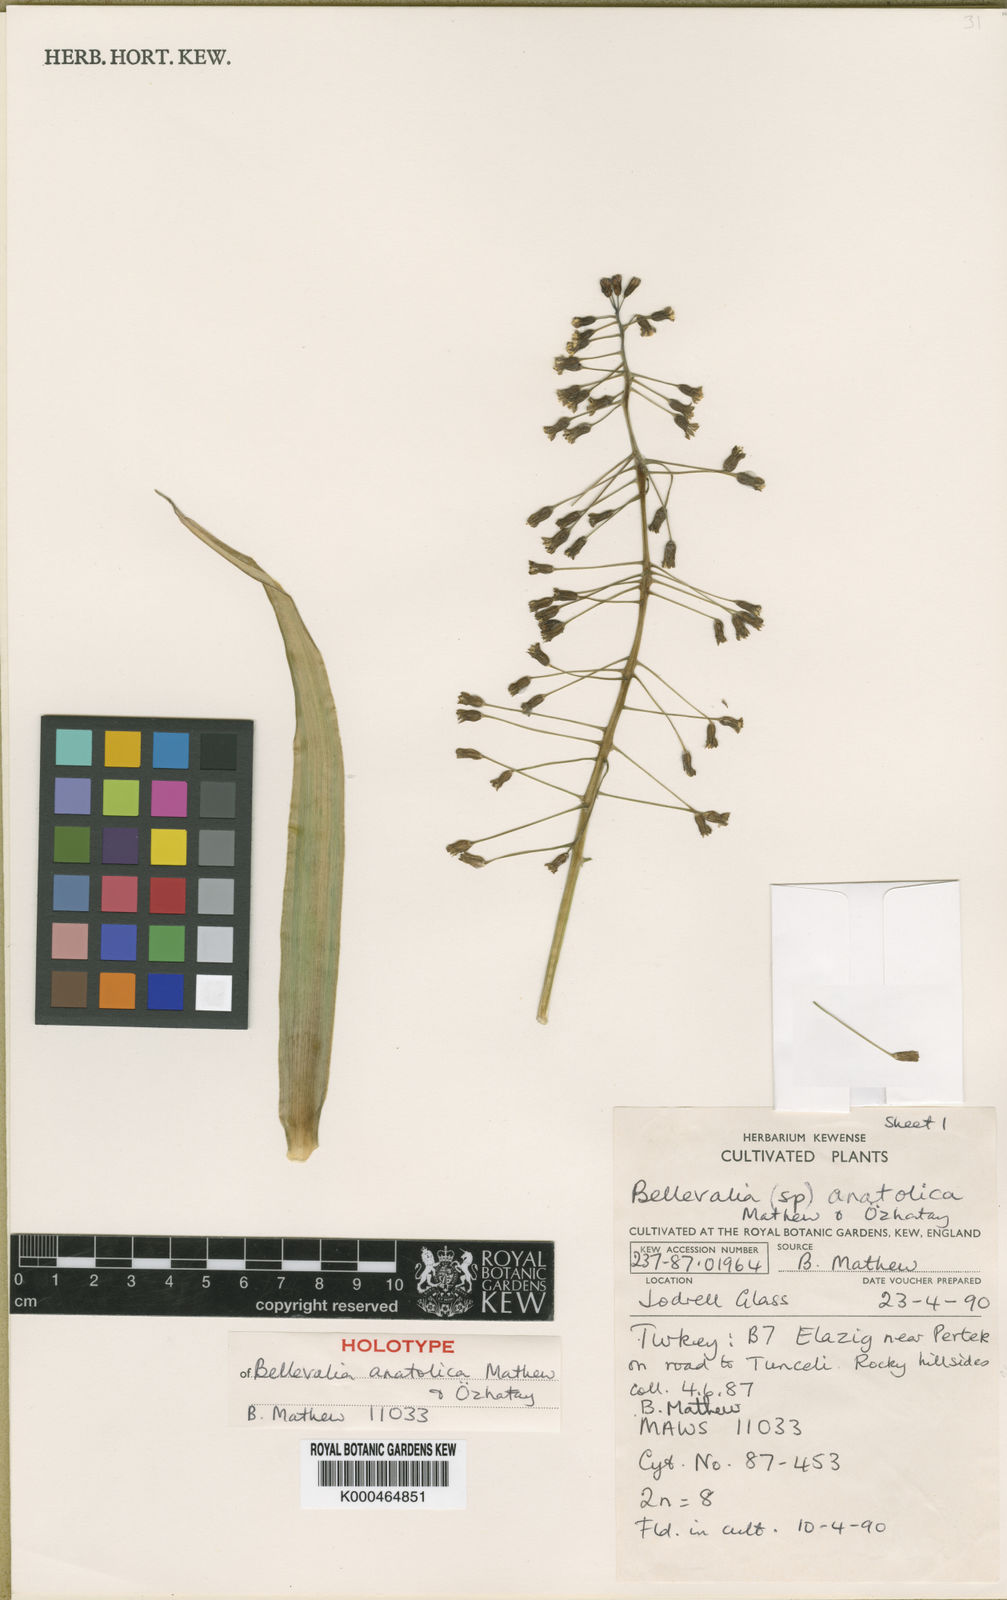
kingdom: Plantae
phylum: Tracheophyta
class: Liliopsida
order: Asparagales
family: Asparagaceae
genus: Bellevalia
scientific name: Bellevalia
